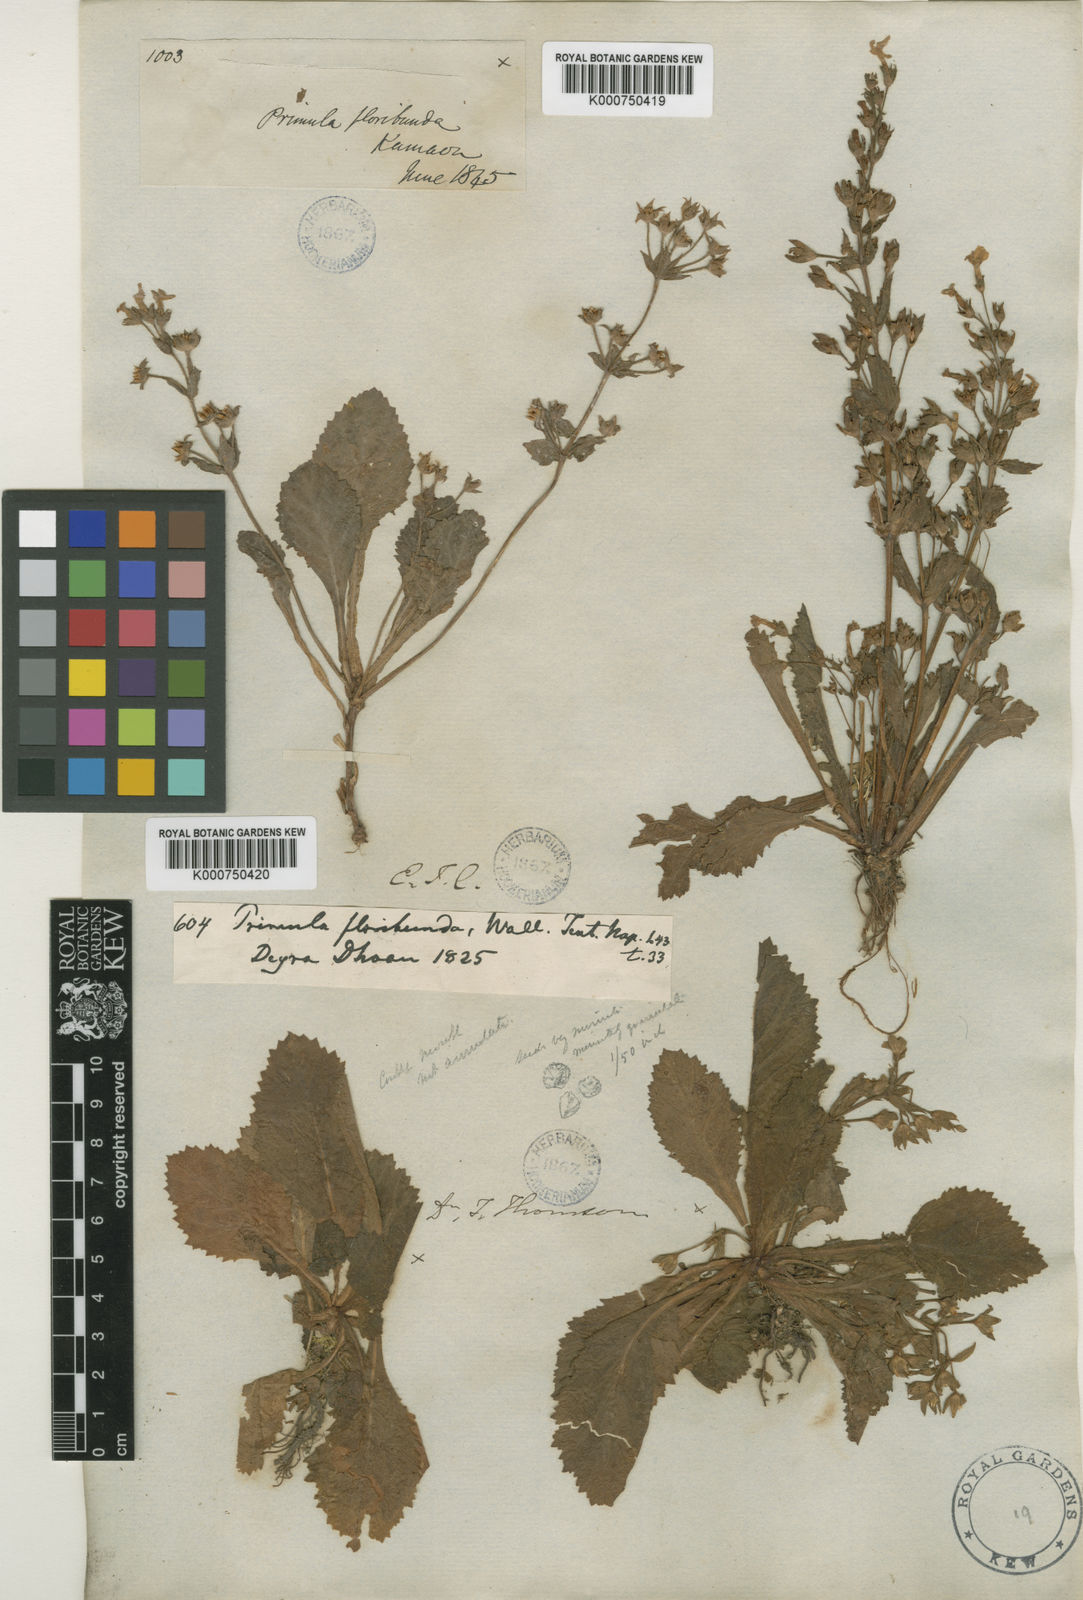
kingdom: Plantae
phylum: Tracheophyta
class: Magnoliopsida
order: Ericales
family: Primulaceae
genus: Evotrochis
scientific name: Evotrochis floribunda
